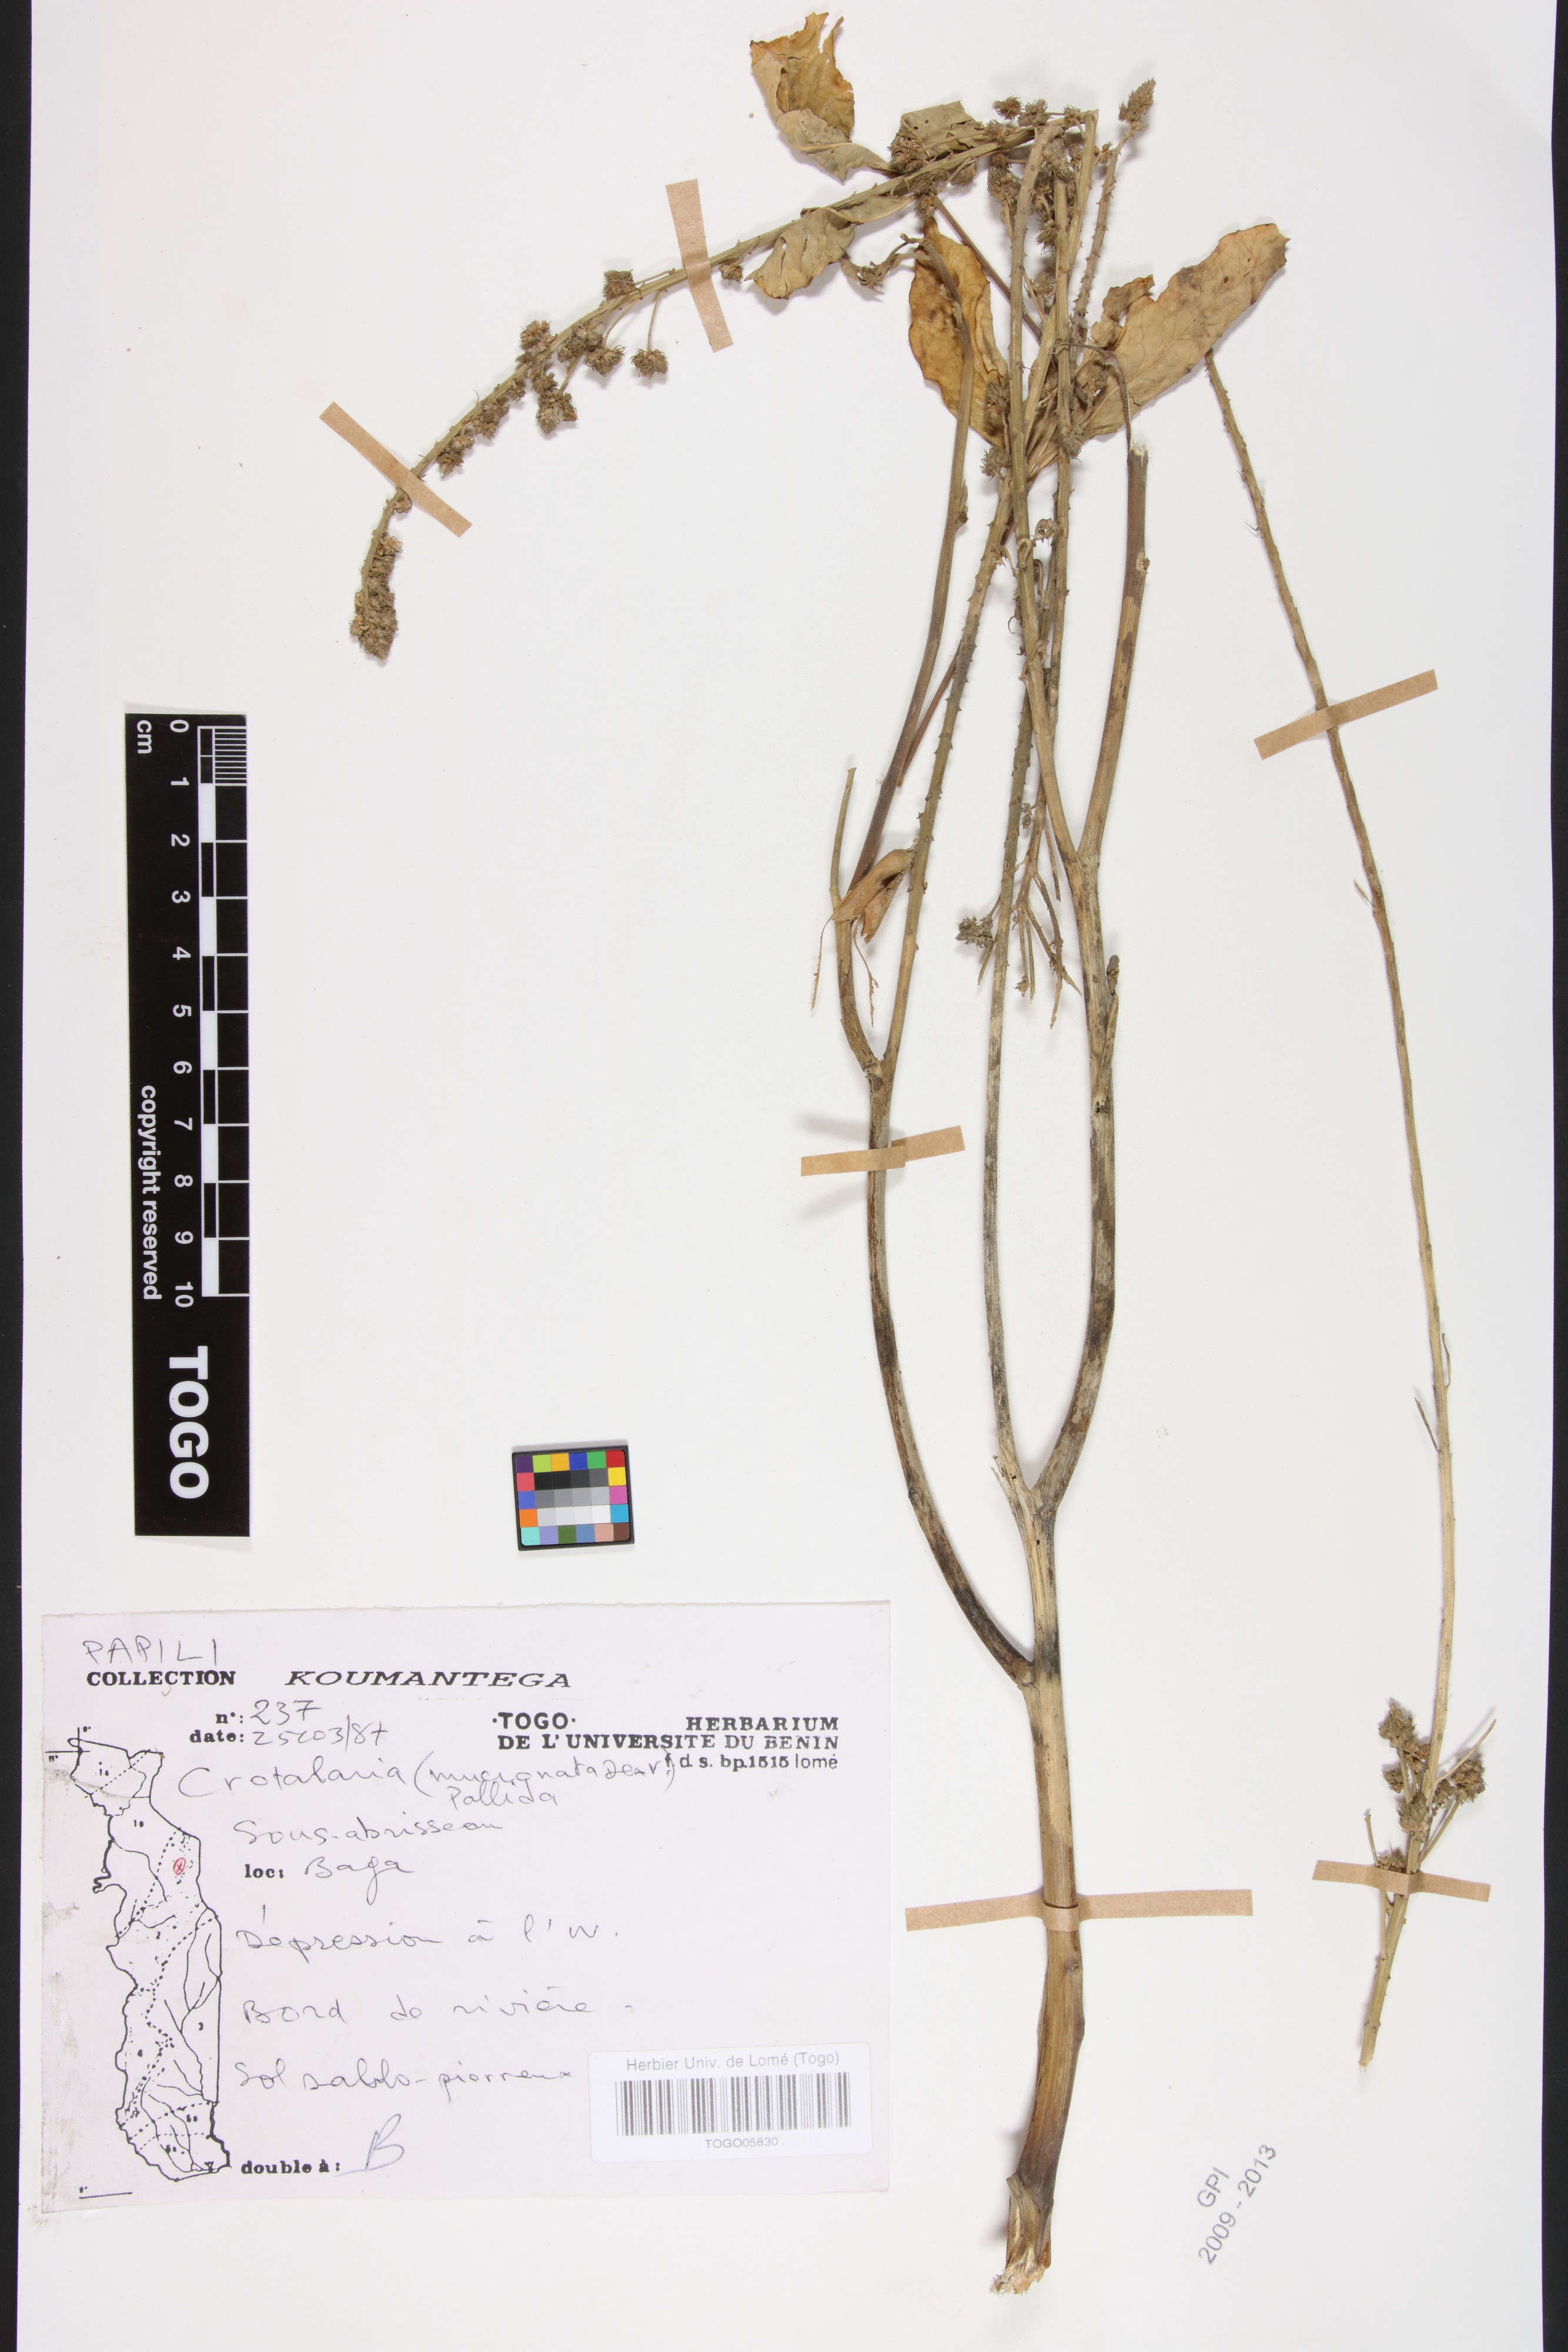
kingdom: Plantae
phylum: Tracheophyta
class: Magnoliopsida
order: Fabales
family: Fabaceae
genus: Crotalaria
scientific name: Crotalaria pallida
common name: Smooth rattlebox
